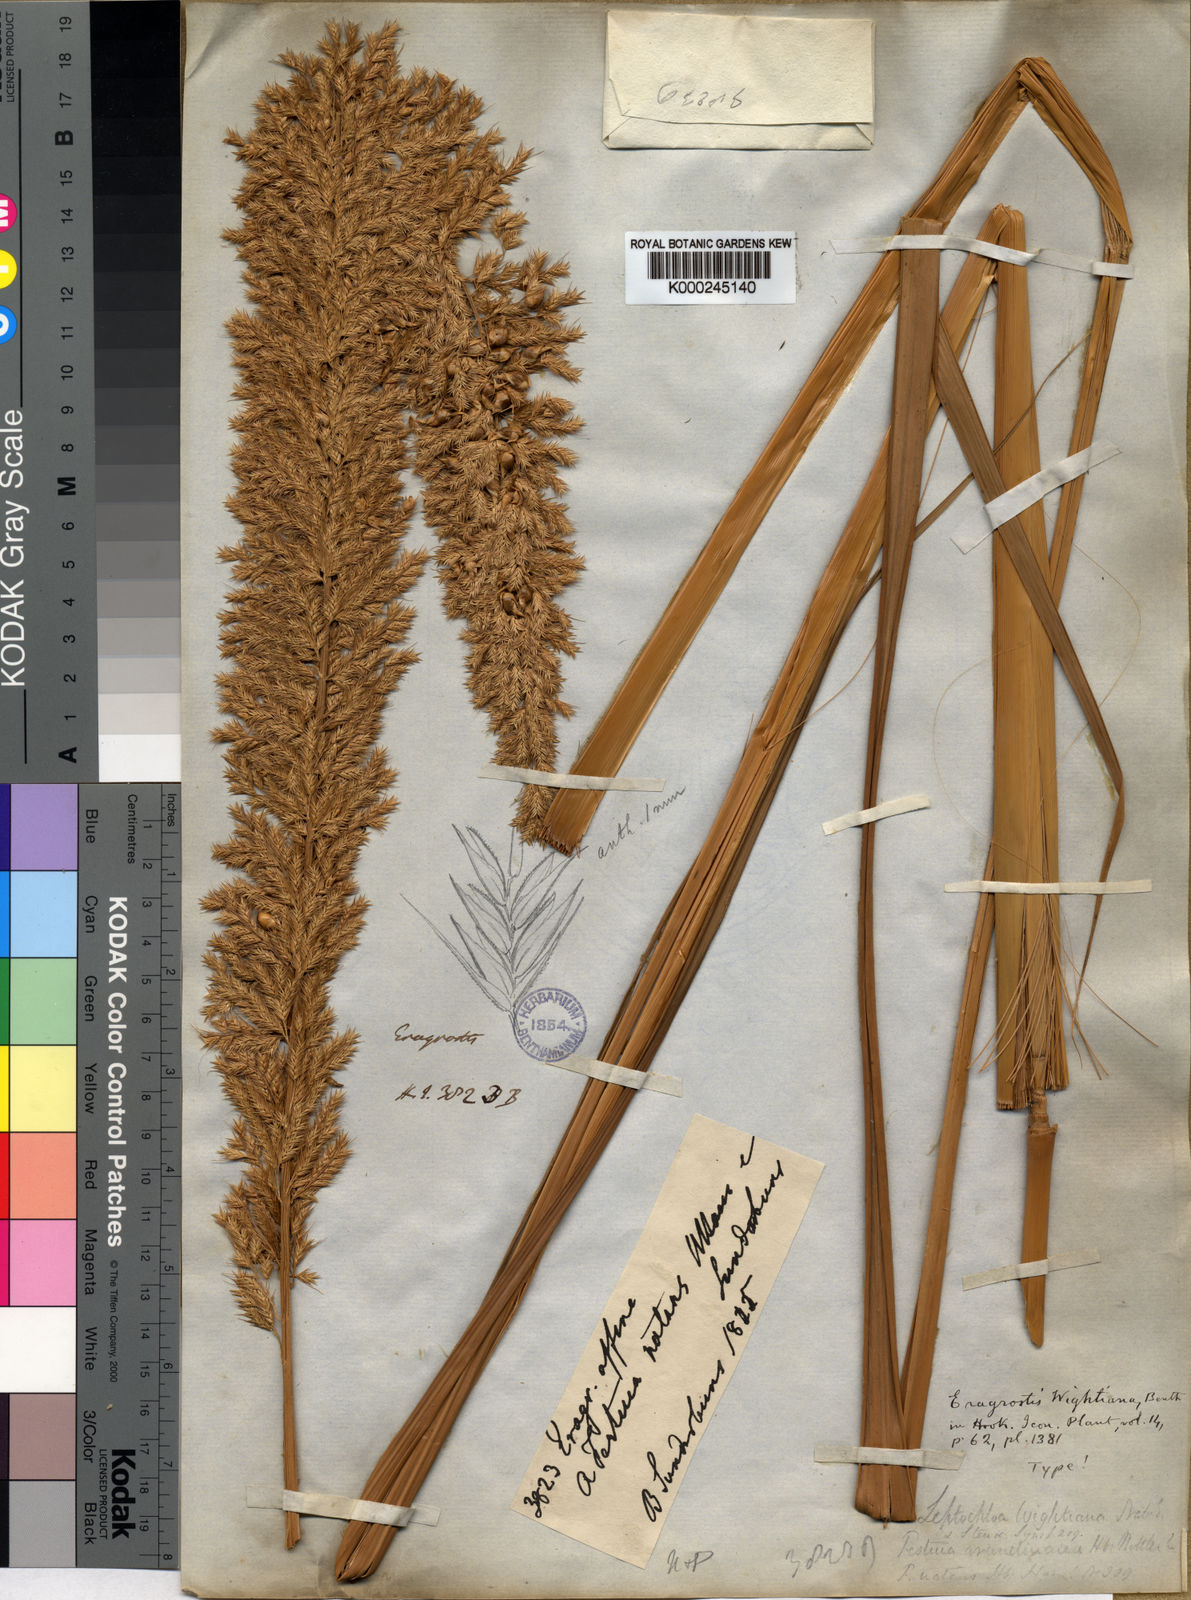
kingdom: Plantae
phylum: Tracheophyta
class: Liliopsida
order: Poales
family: Poaceae
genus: Myriostachya
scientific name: Myriostachya wightiana
